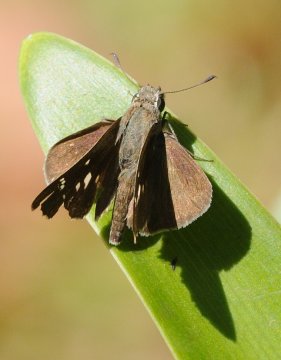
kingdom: Animalia
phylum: Arthropoda
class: Insecta
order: Lepidoptera
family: Hesperiidae
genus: Borbo
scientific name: Borbo
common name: Swifts
